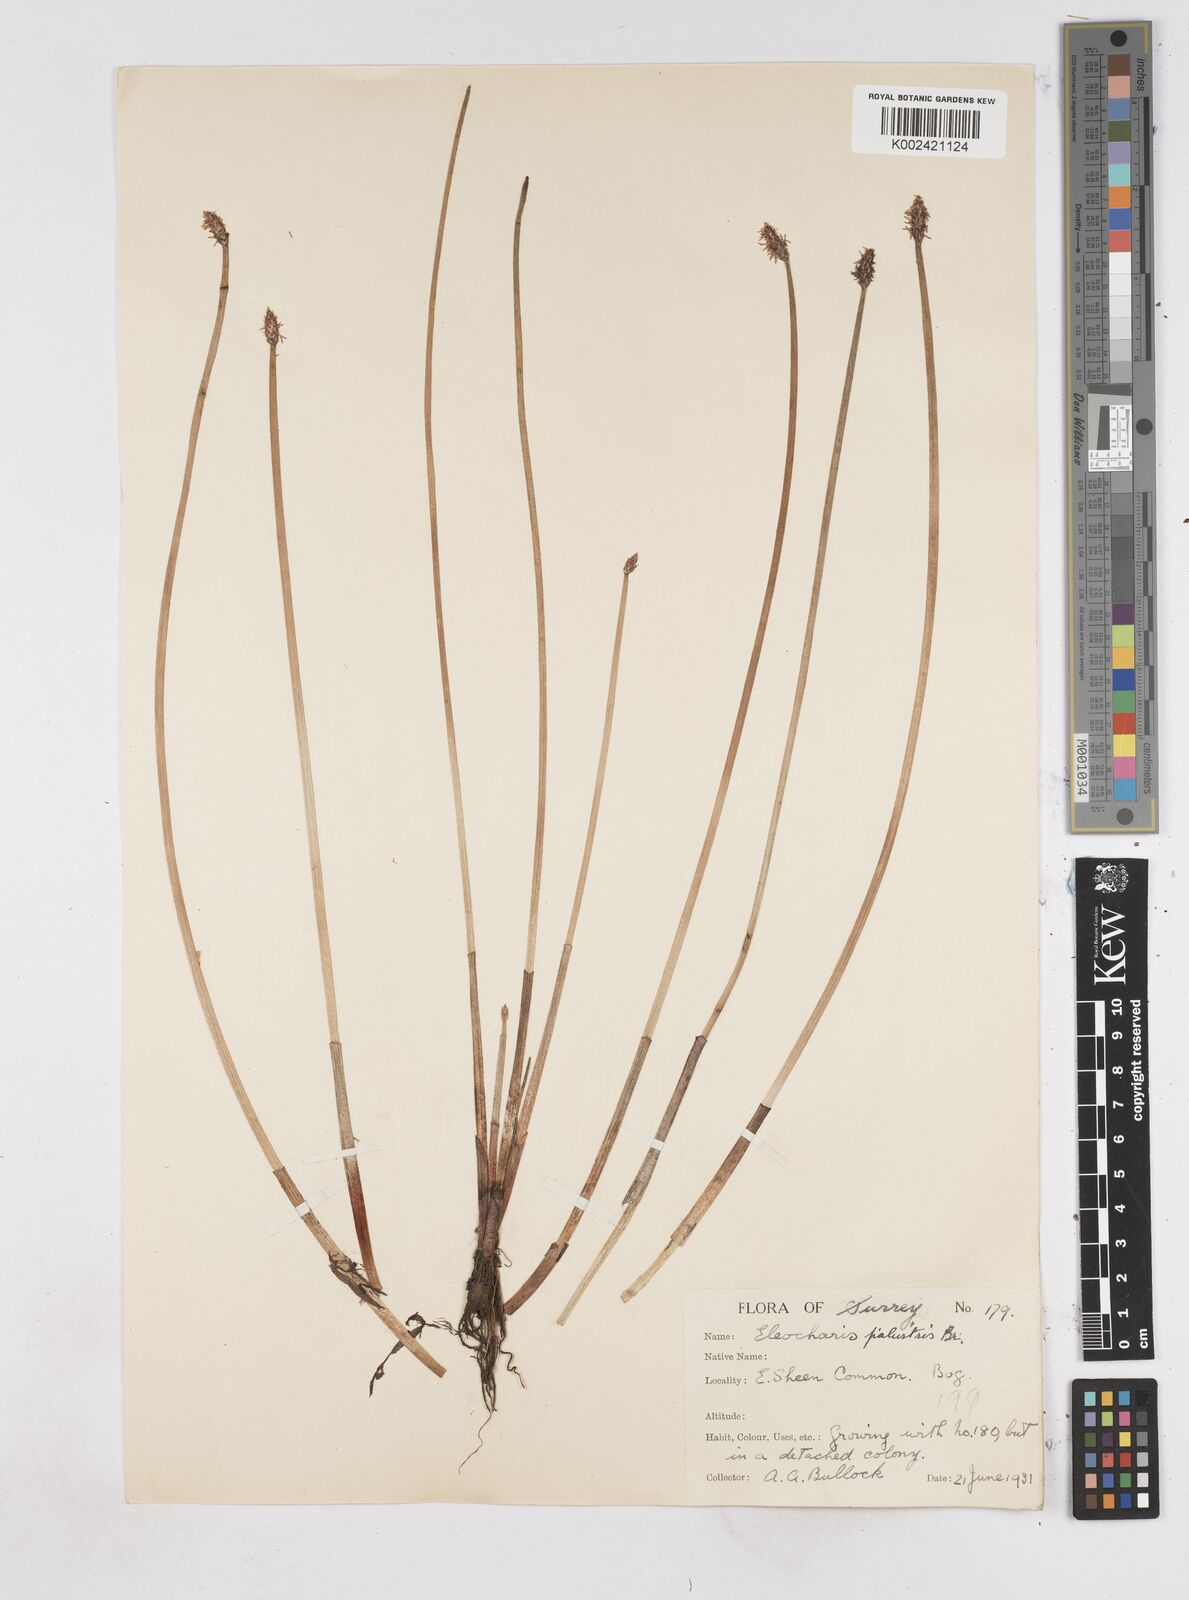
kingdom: Plantae
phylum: Tracheophyta
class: Liliopsida
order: Poales
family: Cyperaceae
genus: Eleocharis
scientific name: Eleocharis palustris
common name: Common spike-rush
